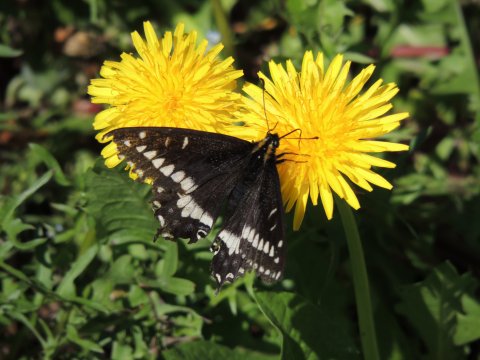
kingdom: Animalia
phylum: Arthropoda
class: Insecta
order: Lepidoptera
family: Papilionidae
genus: Papilio
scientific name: Papilio indra
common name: Indra Swallowtail
